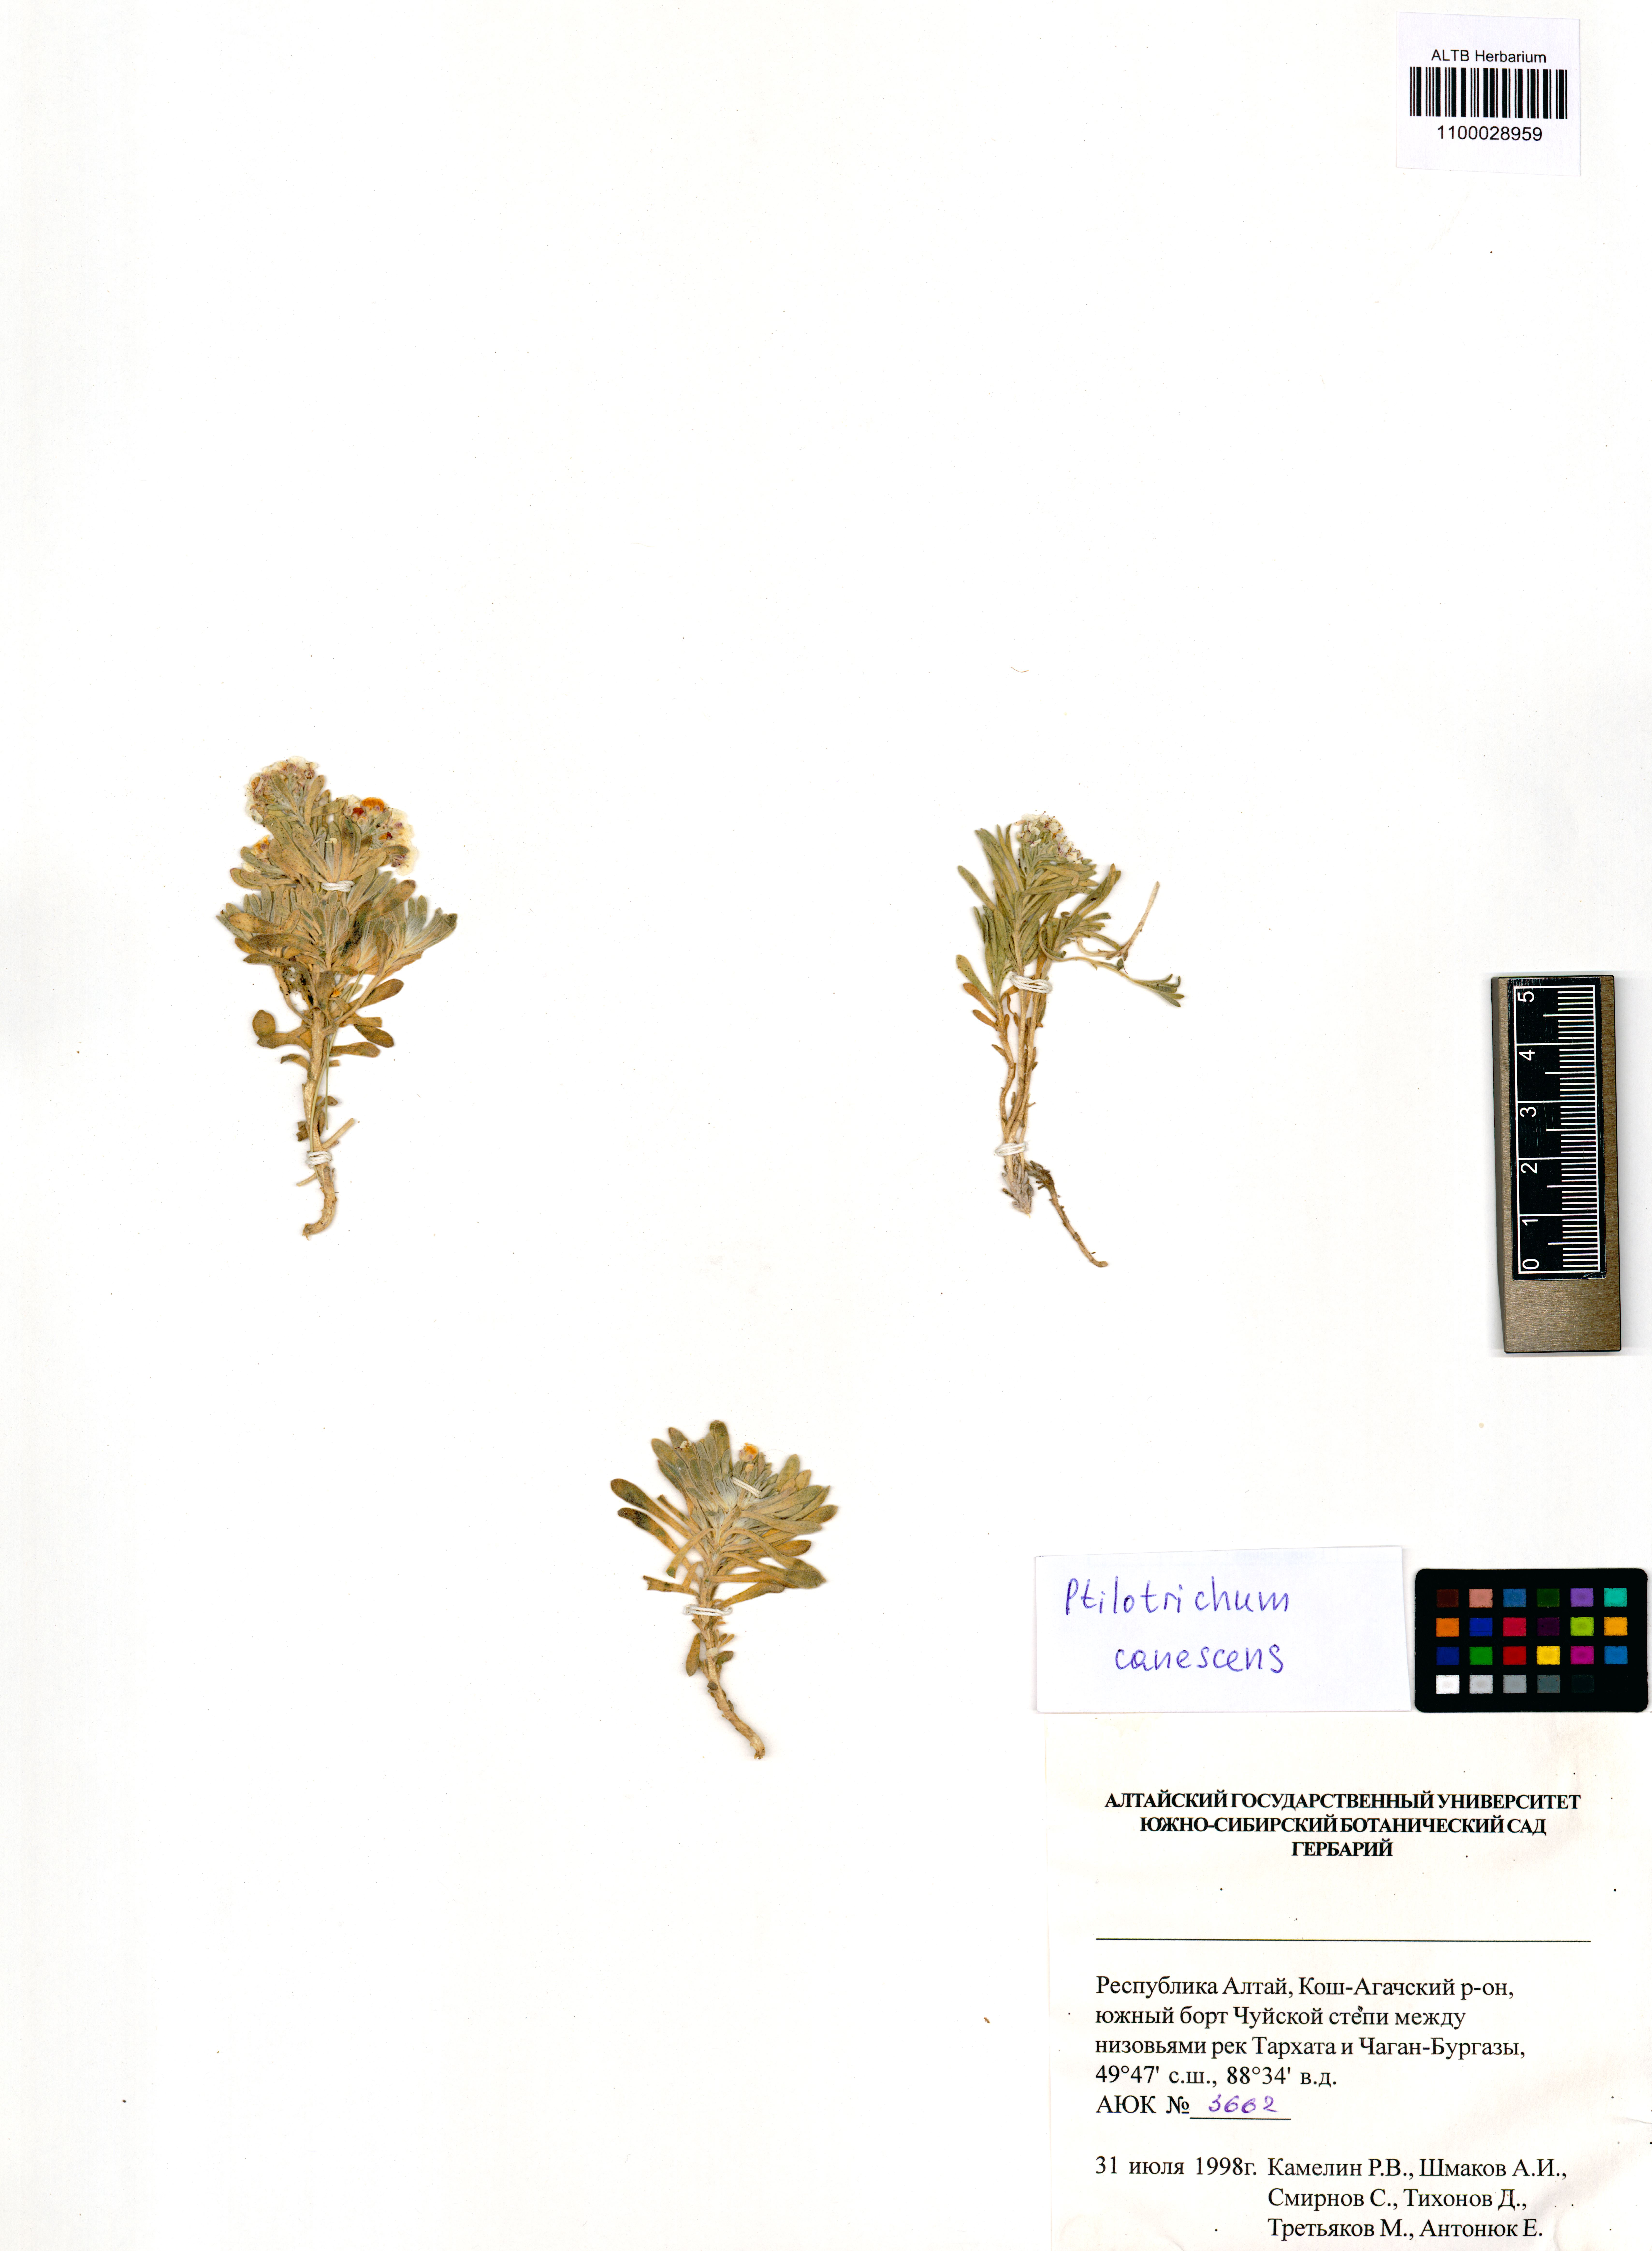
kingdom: Plantae
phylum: Tracheophyta
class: Magnoliopsida
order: Brassicales
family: Brassicaceae
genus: Stevenia
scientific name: Stevenia canescens
